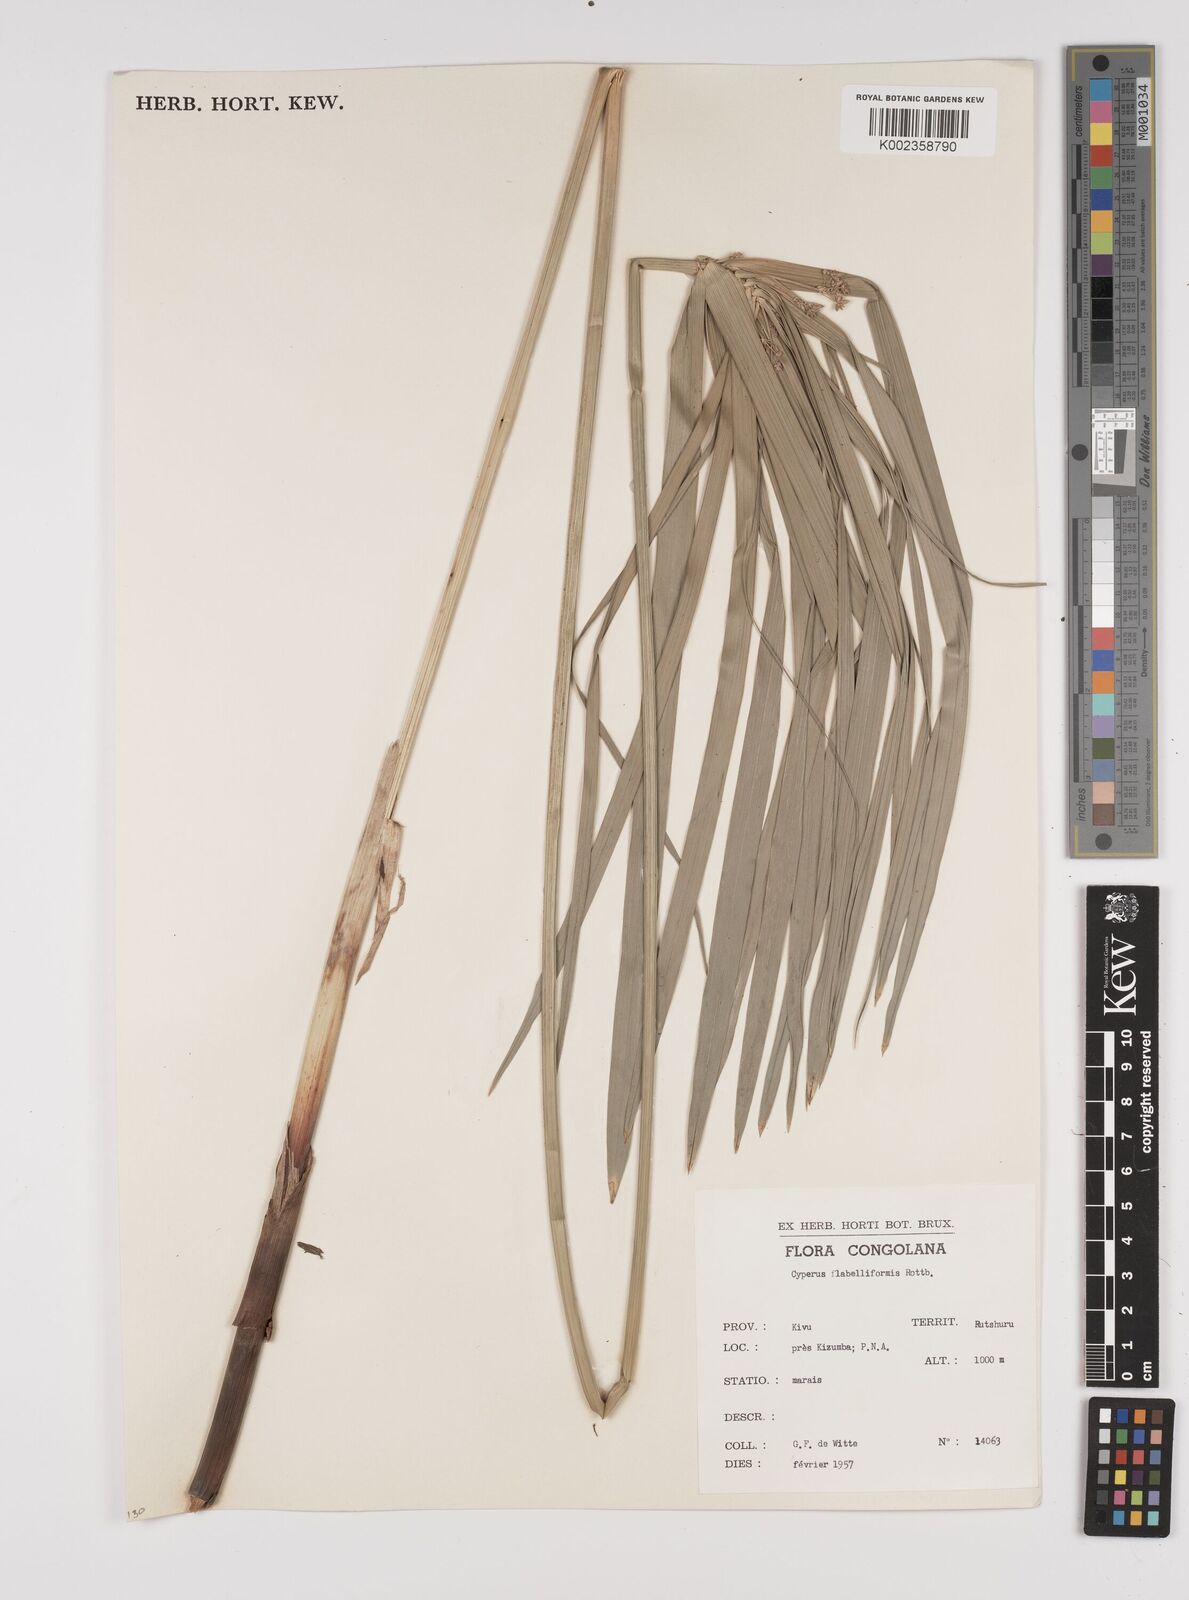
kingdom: Plantae
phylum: Tracheophyta
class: Liliopsida
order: Poales
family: Cyperaceae
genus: Cyperus
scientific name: Cyperus alternifolius
